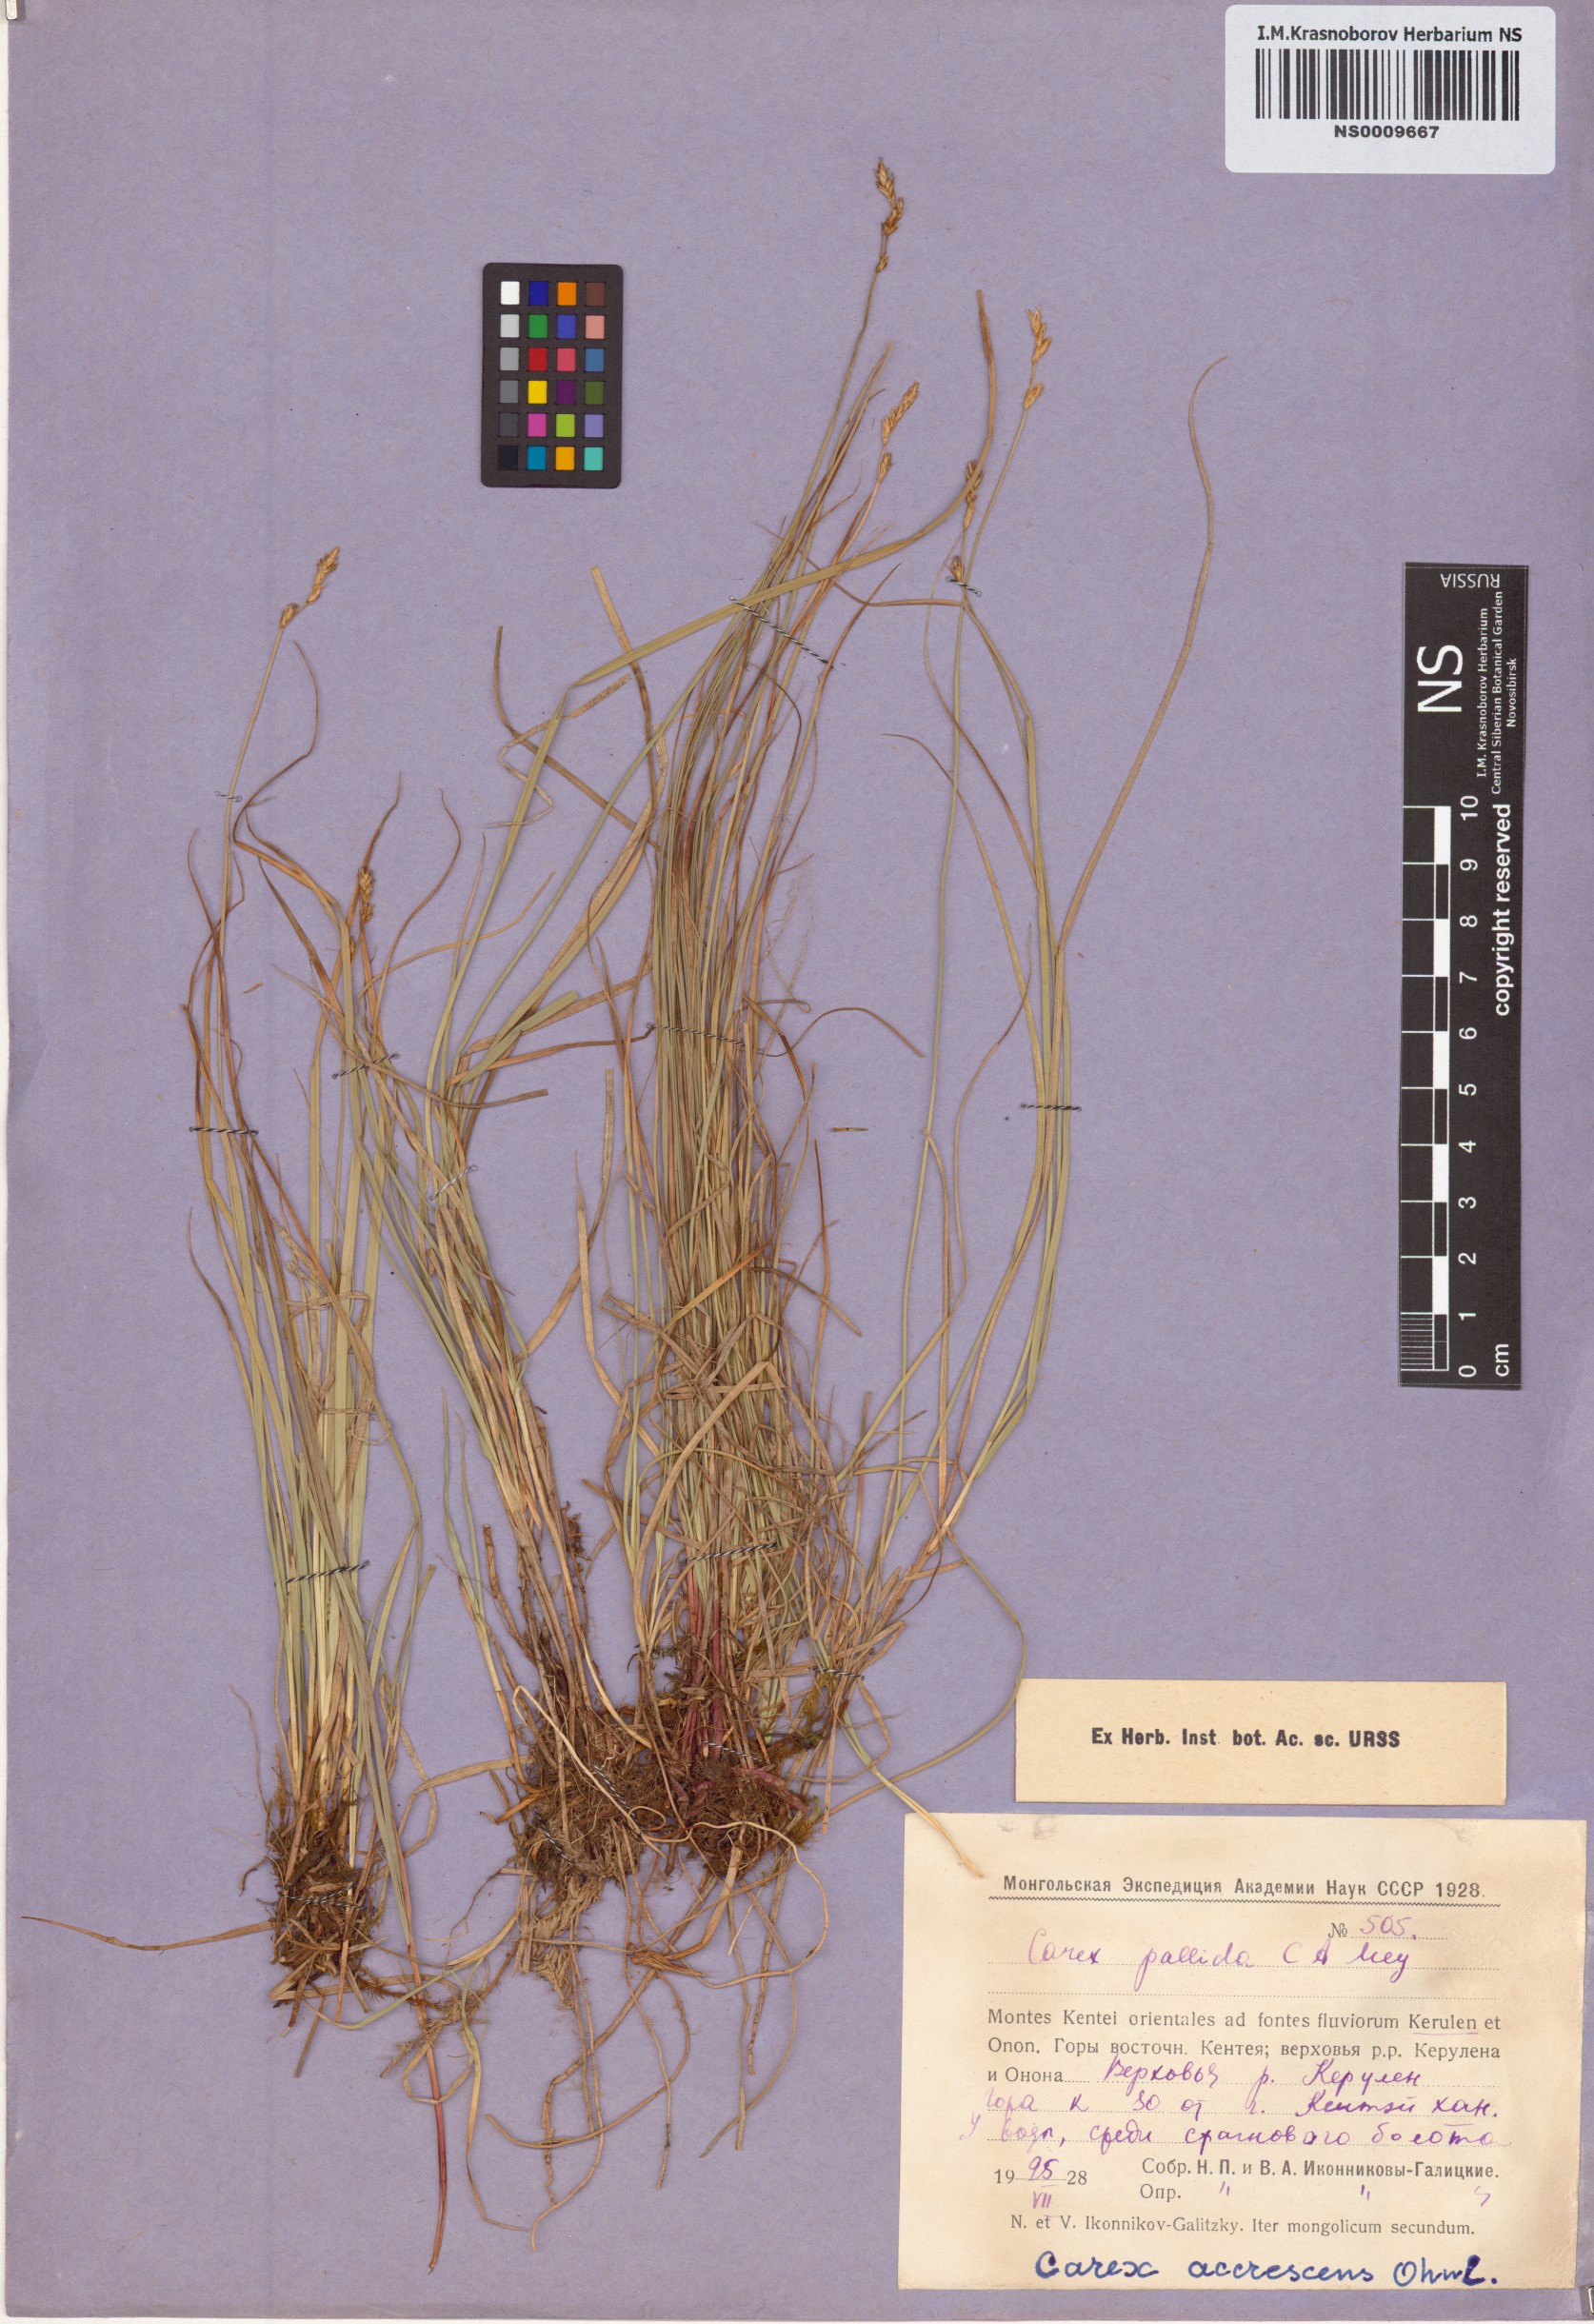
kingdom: Plantae
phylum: Tracheophyta
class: Liliopsida
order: Poales
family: Cyperaceae
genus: Carex
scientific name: Carex accrescens
